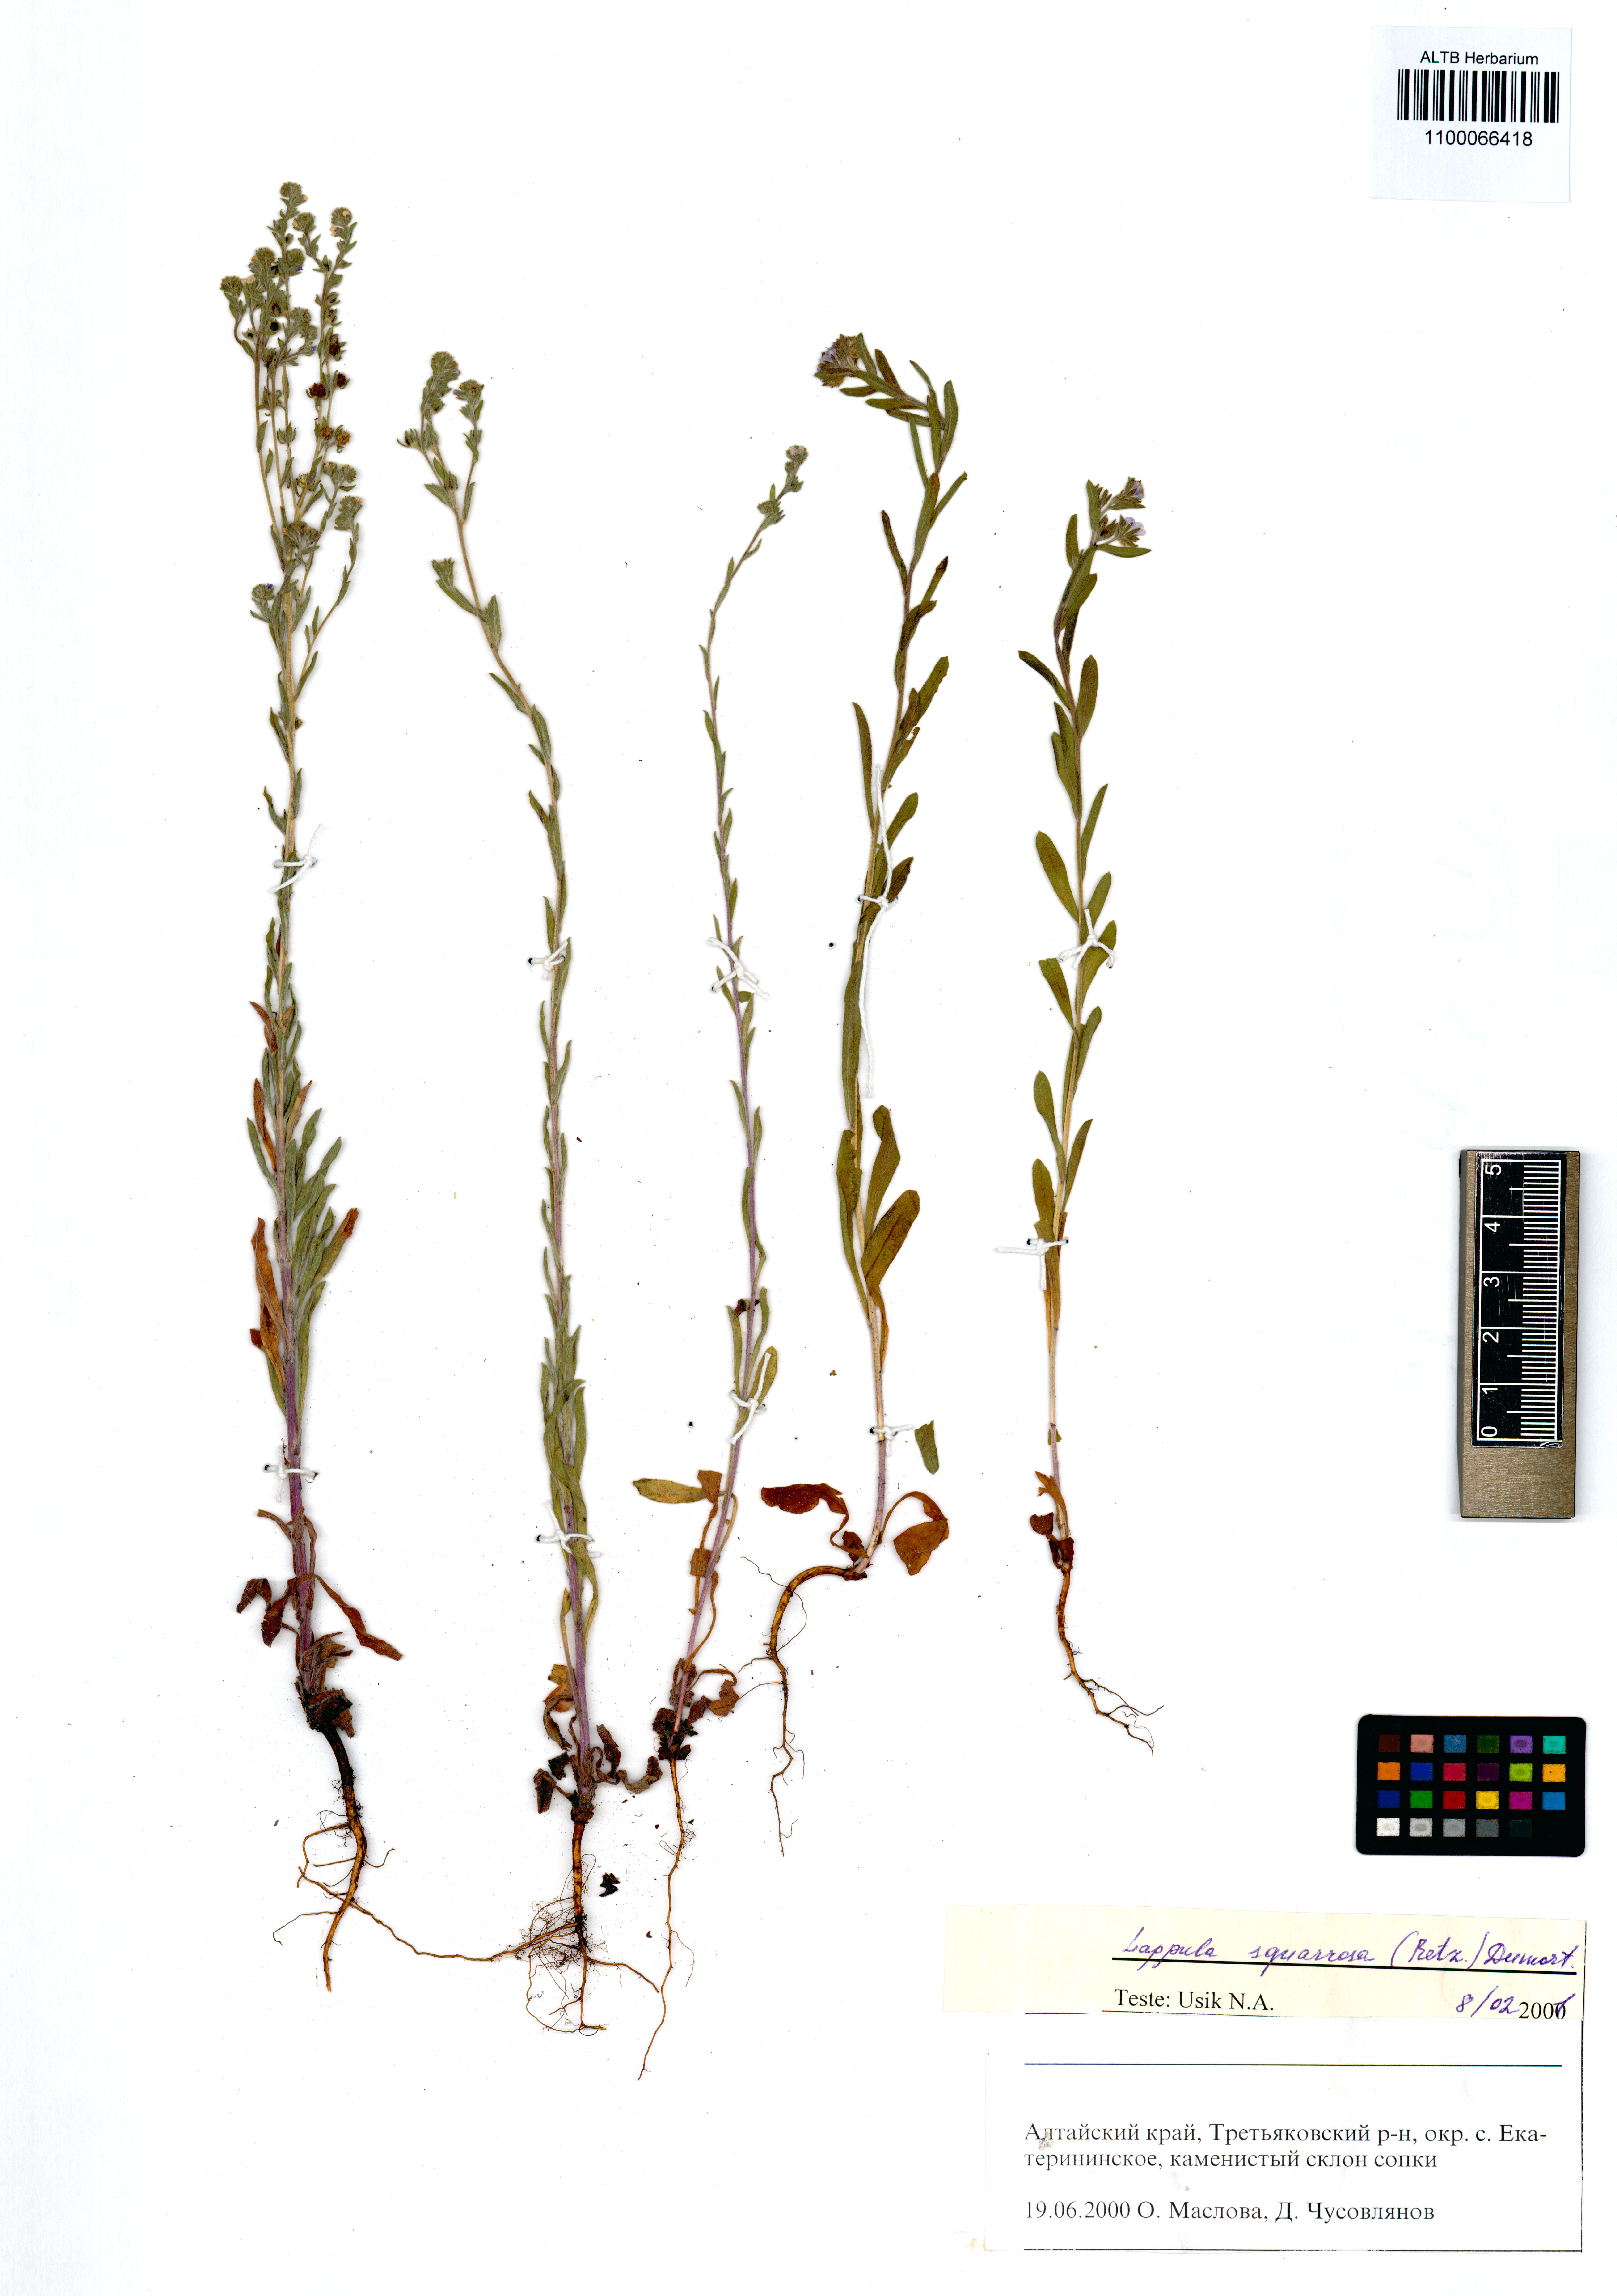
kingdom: Plantae
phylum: Tracheophyta
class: Magnoliopsida
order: Boraginales
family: Boraginaceae
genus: Lappula
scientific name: Lappula squarrosa
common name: European stickseed
